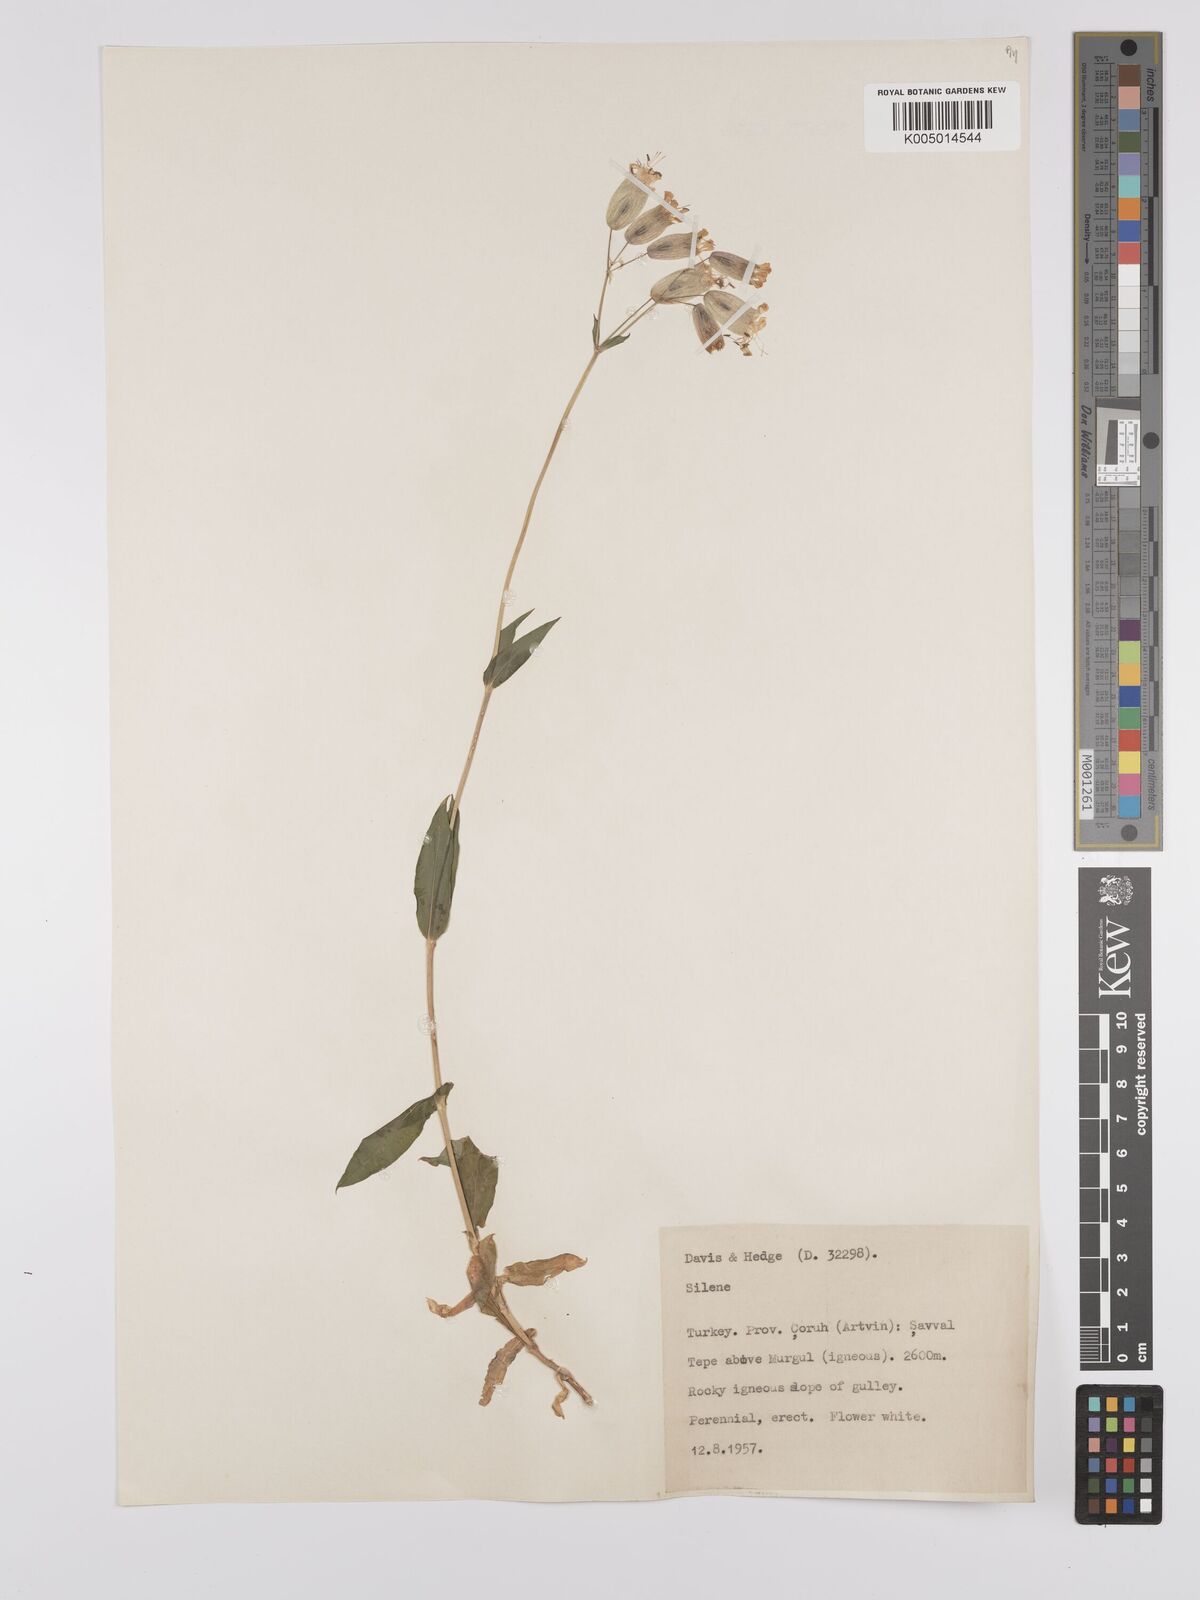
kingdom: Plantae
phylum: Tracheophyta
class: Magnoliopsida
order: Caryophyllales
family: Caryophyllaceae
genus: Silene
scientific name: Silene
